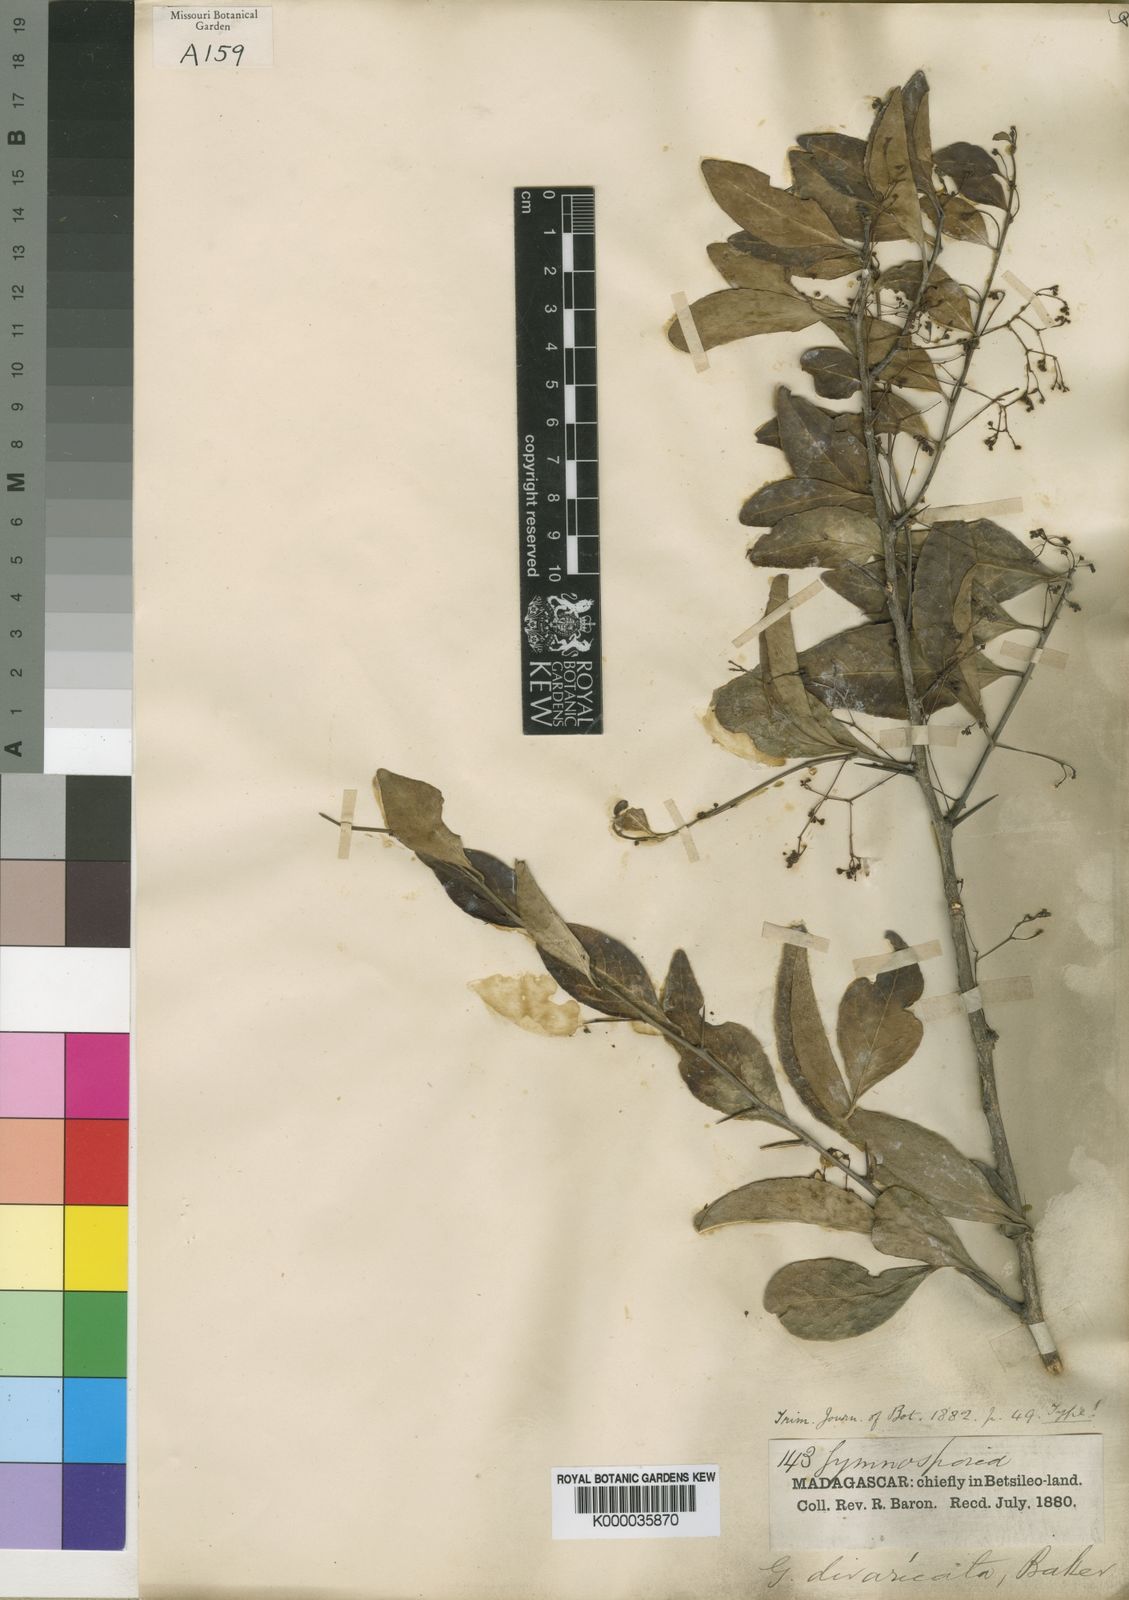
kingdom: Plantae
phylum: Tracheophyta
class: Magnoliopsida
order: Celastrales
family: Celastraceae
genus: Gymnosporia
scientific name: Gymnosporia divaricata
